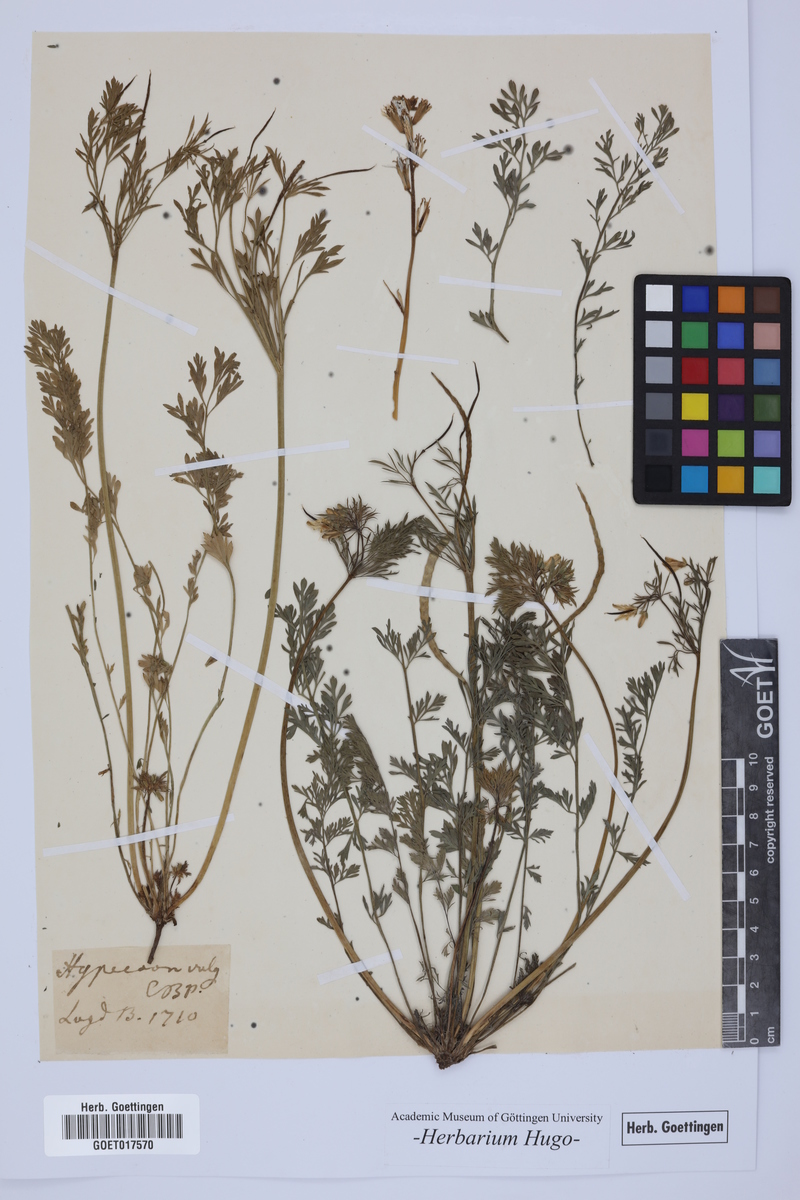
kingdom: Plantae
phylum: Tracheophyta
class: Magnoliopsida
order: Ranunculales
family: Papaveraceae
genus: Hypecoum
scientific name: Hypecoum
